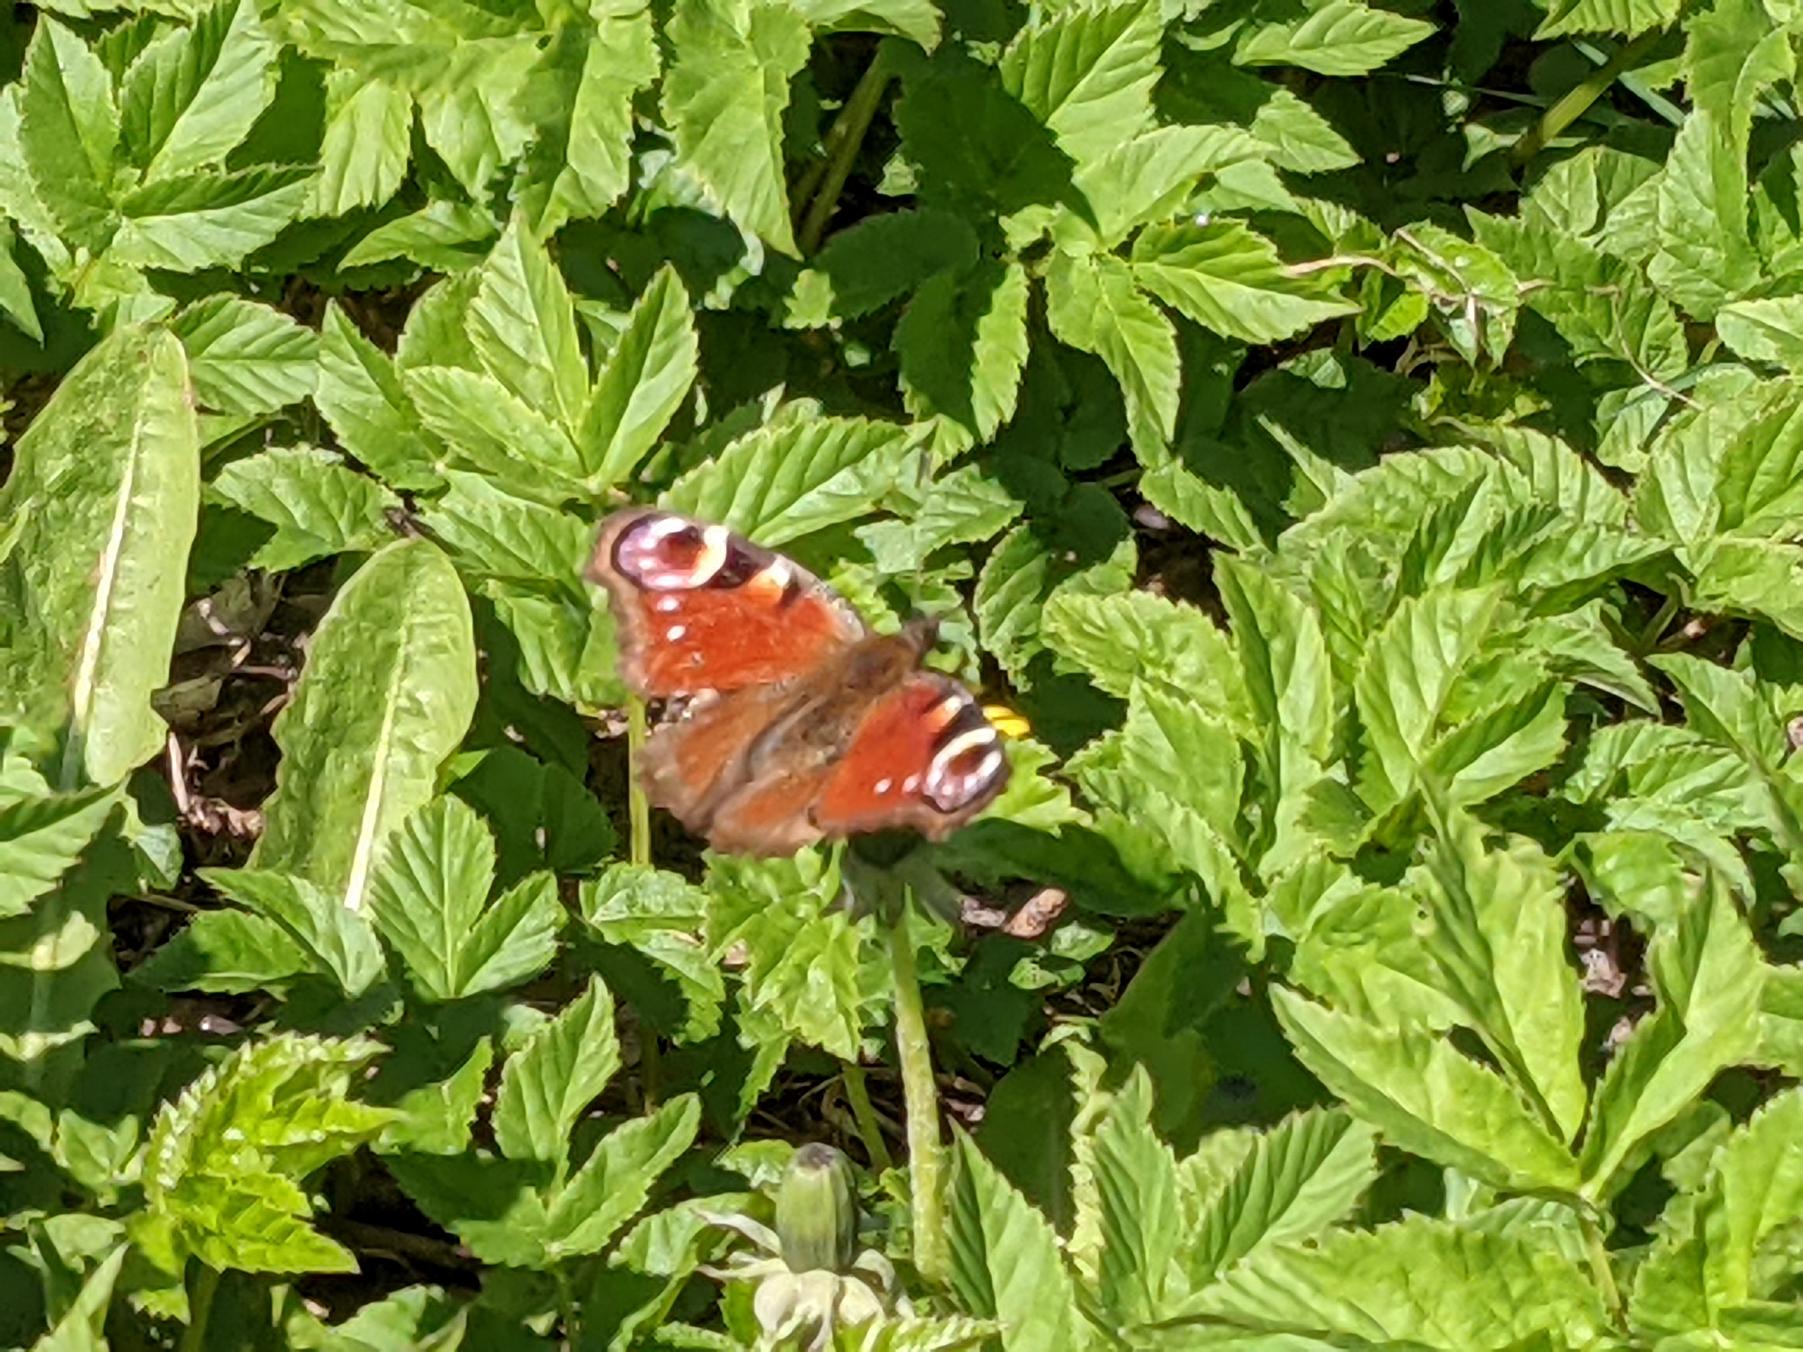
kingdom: Animalia
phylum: Arthropoda
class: Insecta
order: Lepidoptera
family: Nymphalidae
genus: Aglais
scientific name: Aglais io
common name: Dagpåfugleøje
